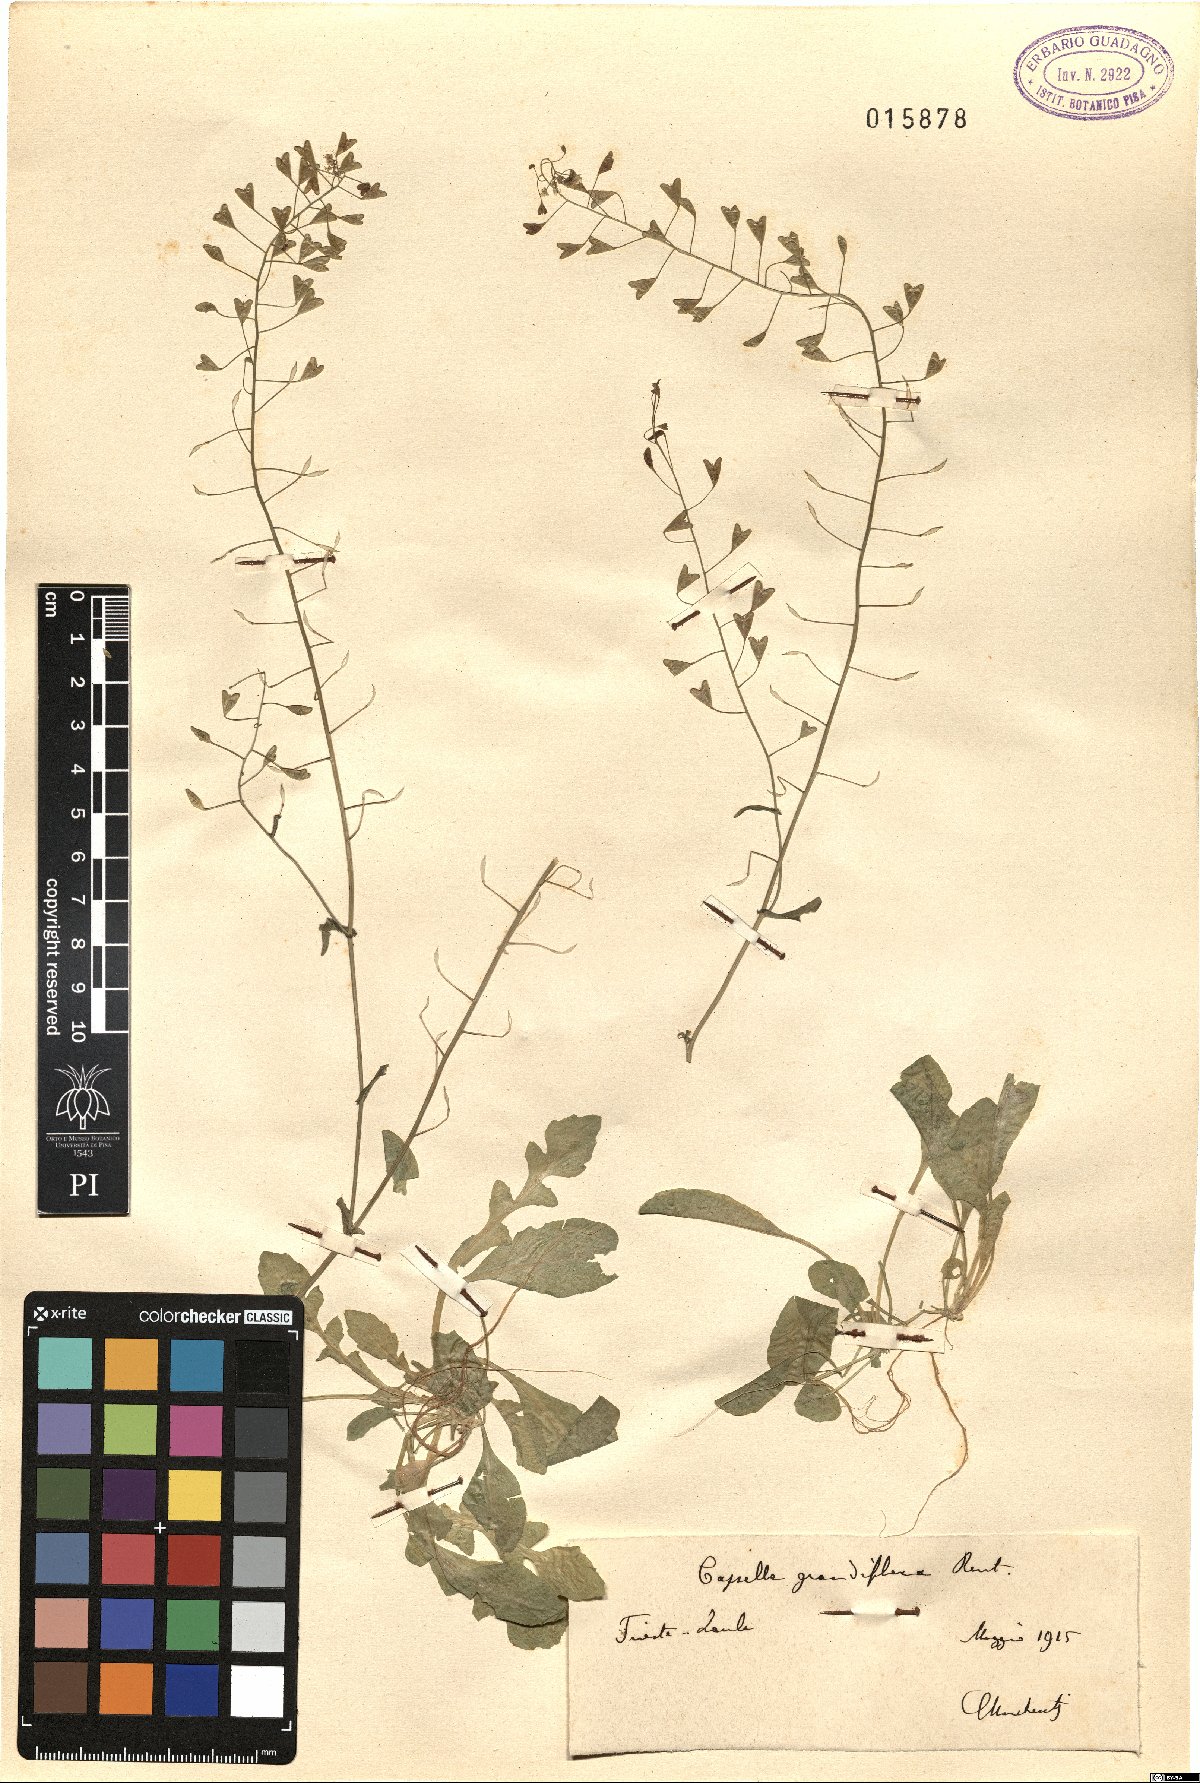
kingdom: Plantae
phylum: Tracheophyta
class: Magnoliopsida
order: Brassicales
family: Brassicaceae
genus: Capsella
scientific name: Capsella grandiflora
